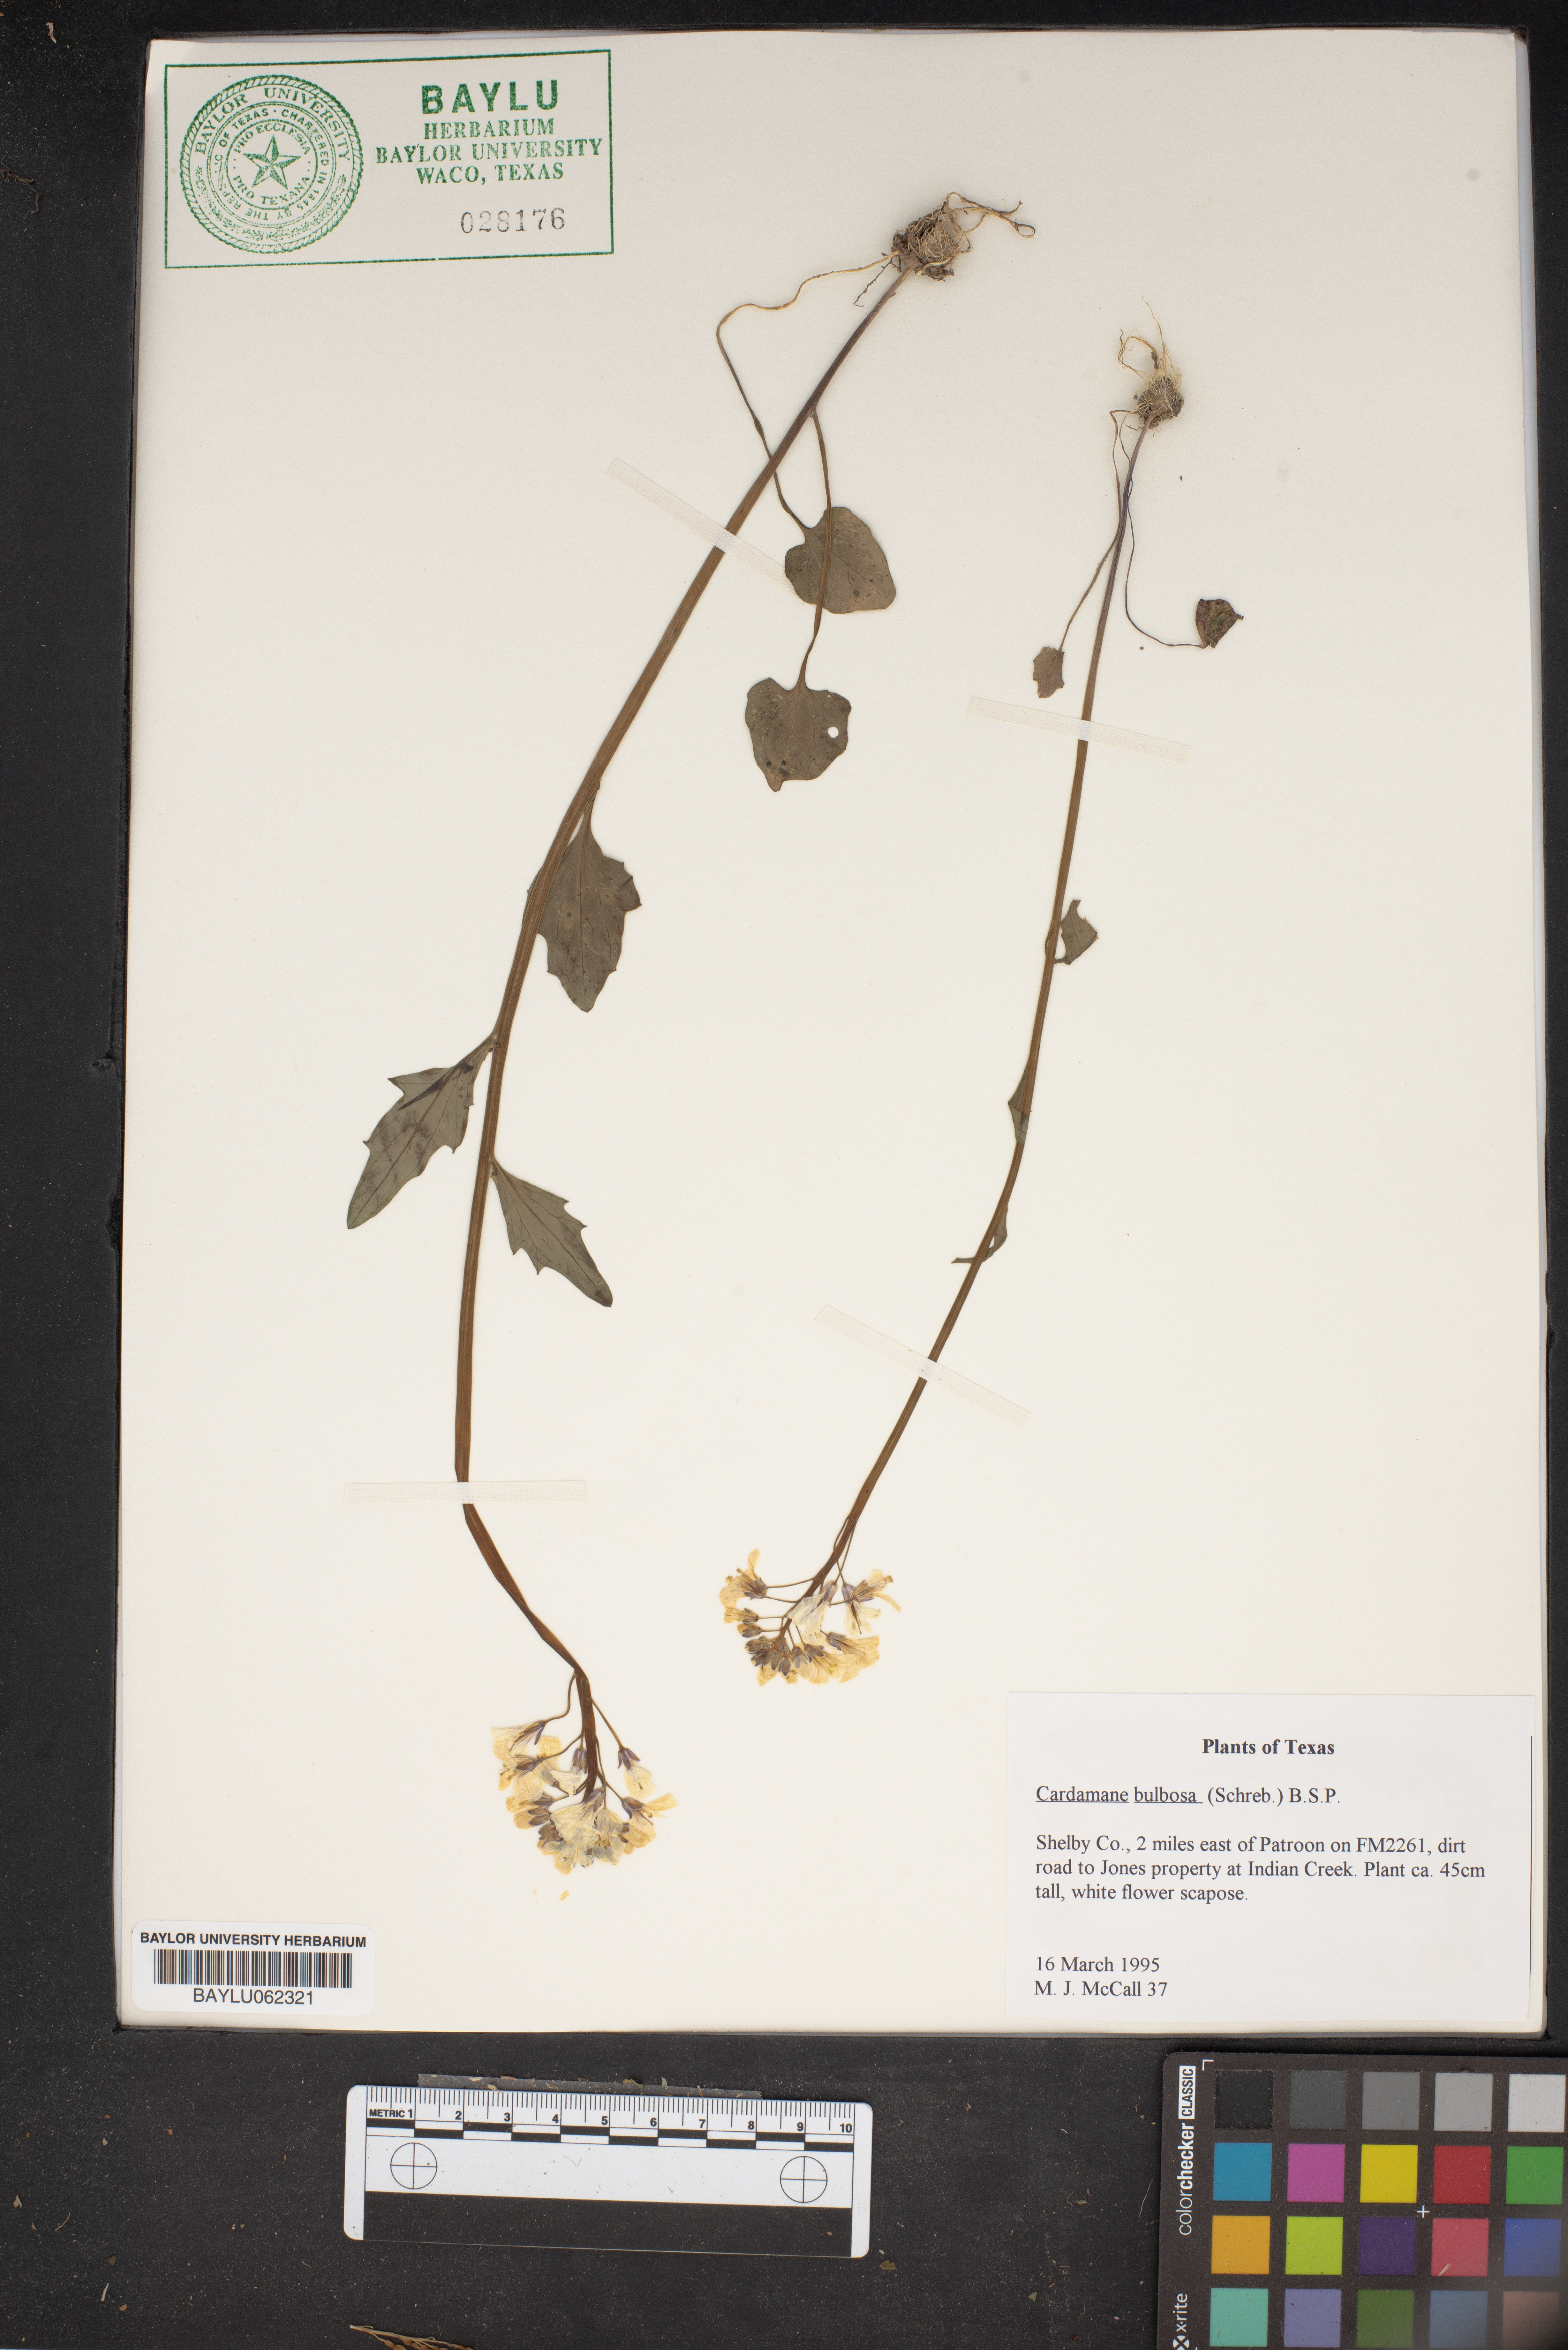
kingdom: Plantae
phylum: Tracheophyta
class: Magnoliopsida
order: Brassicales
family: Brassicaceae
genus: Cardamine
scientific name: Cardamine bulbosa
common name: Spring cress
